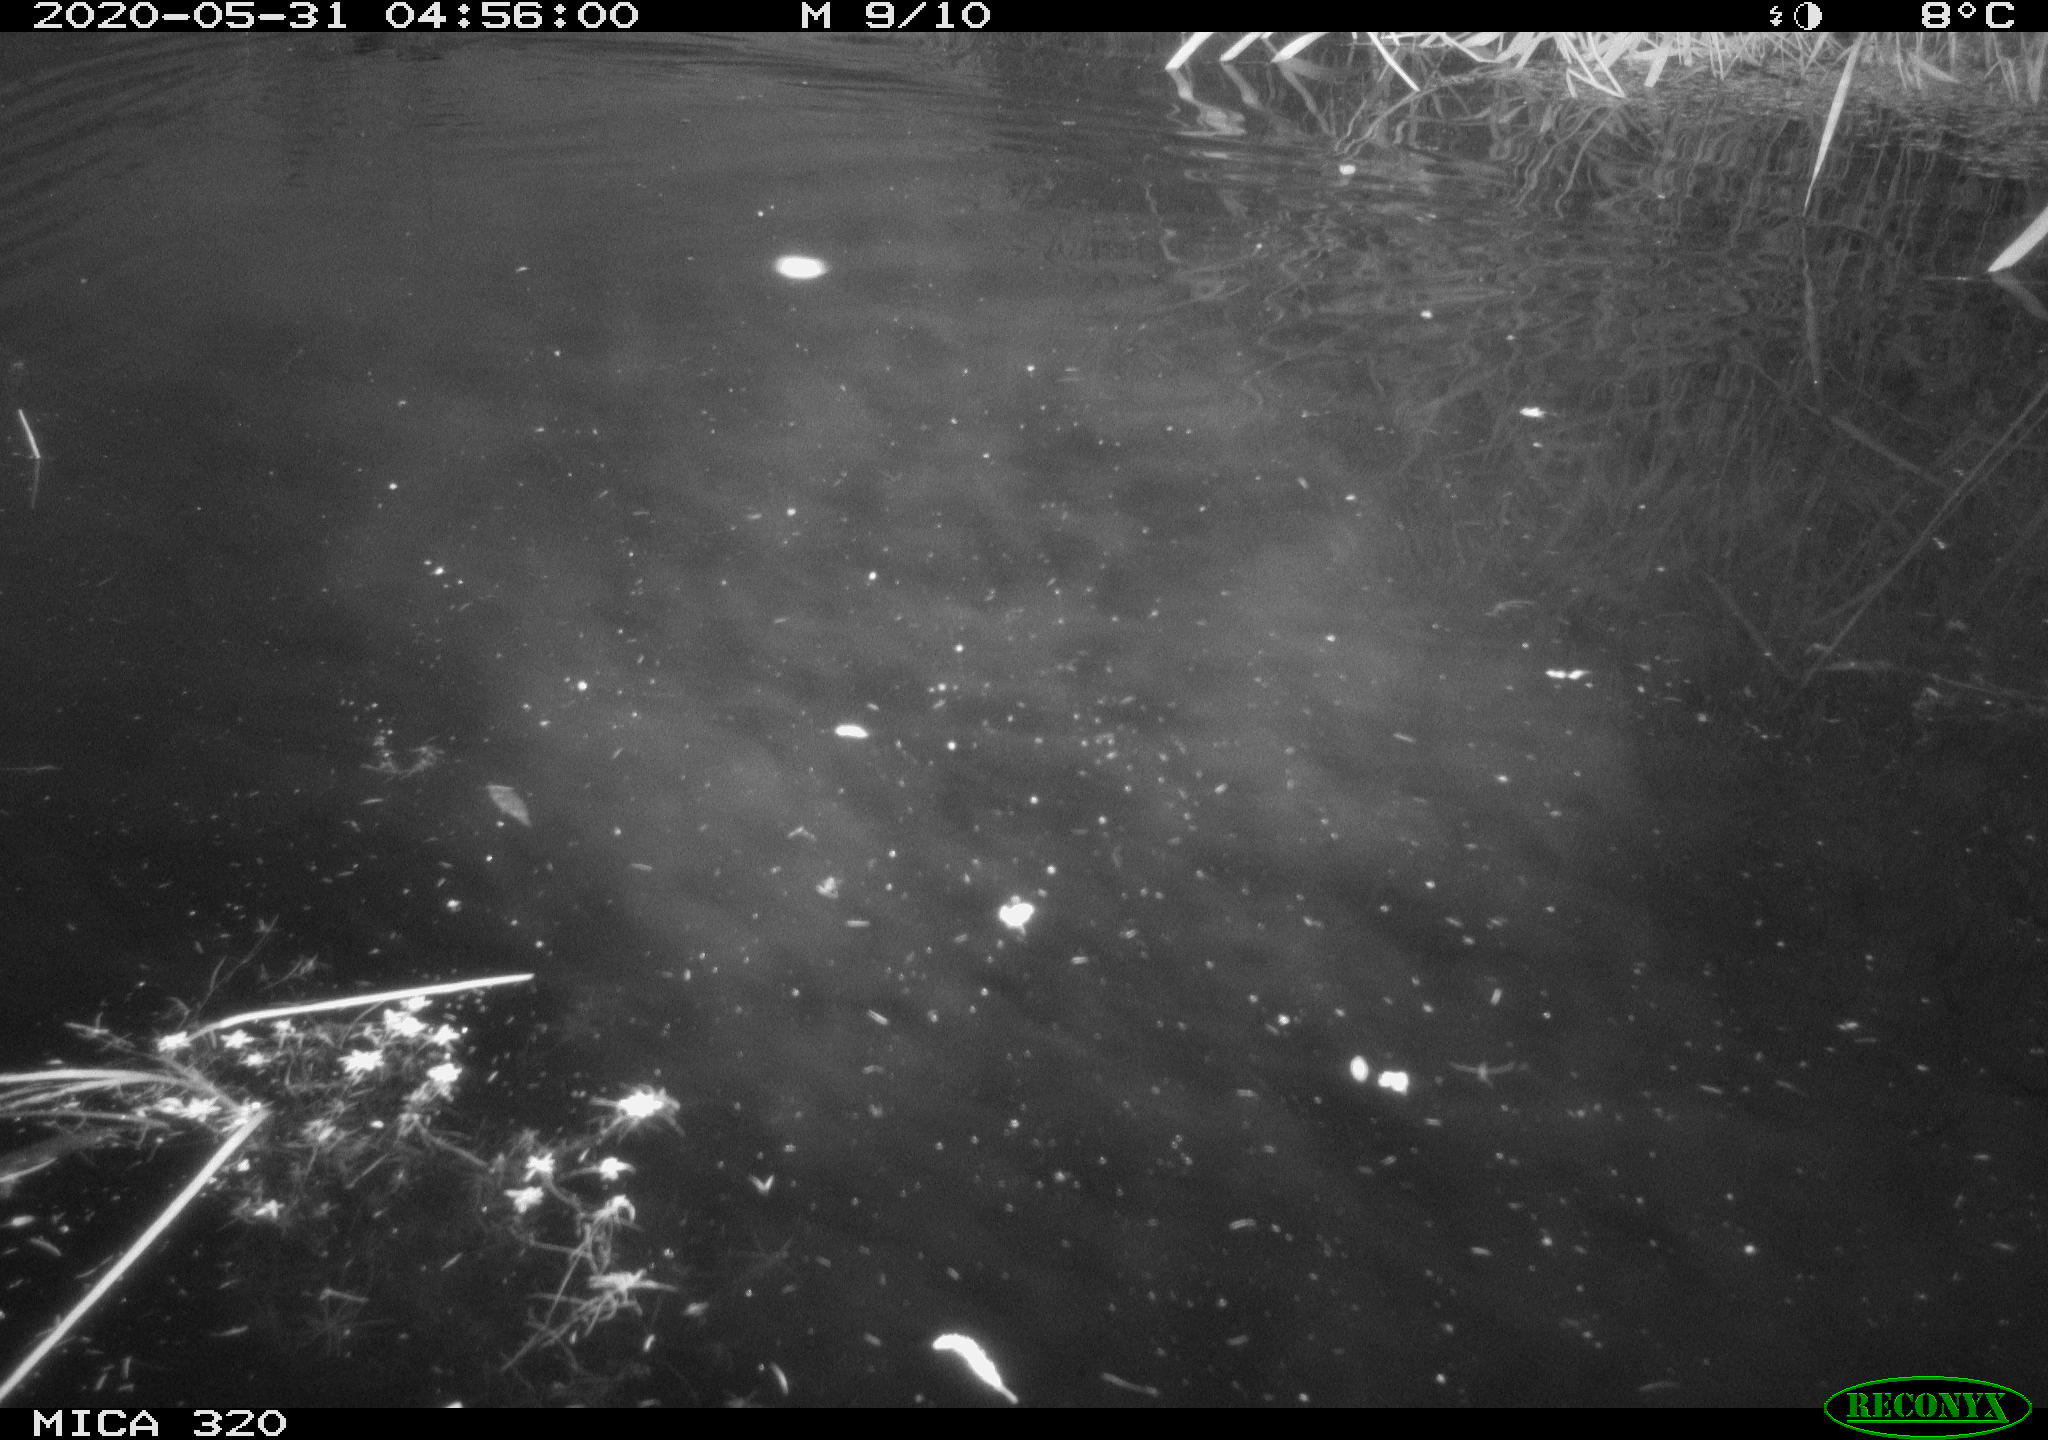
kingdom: Animalia
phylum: Chordata
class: Aves
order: Anseriformes
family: Anatidae
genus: Anas
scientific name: Anas platyrhynchos
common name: Mallard
